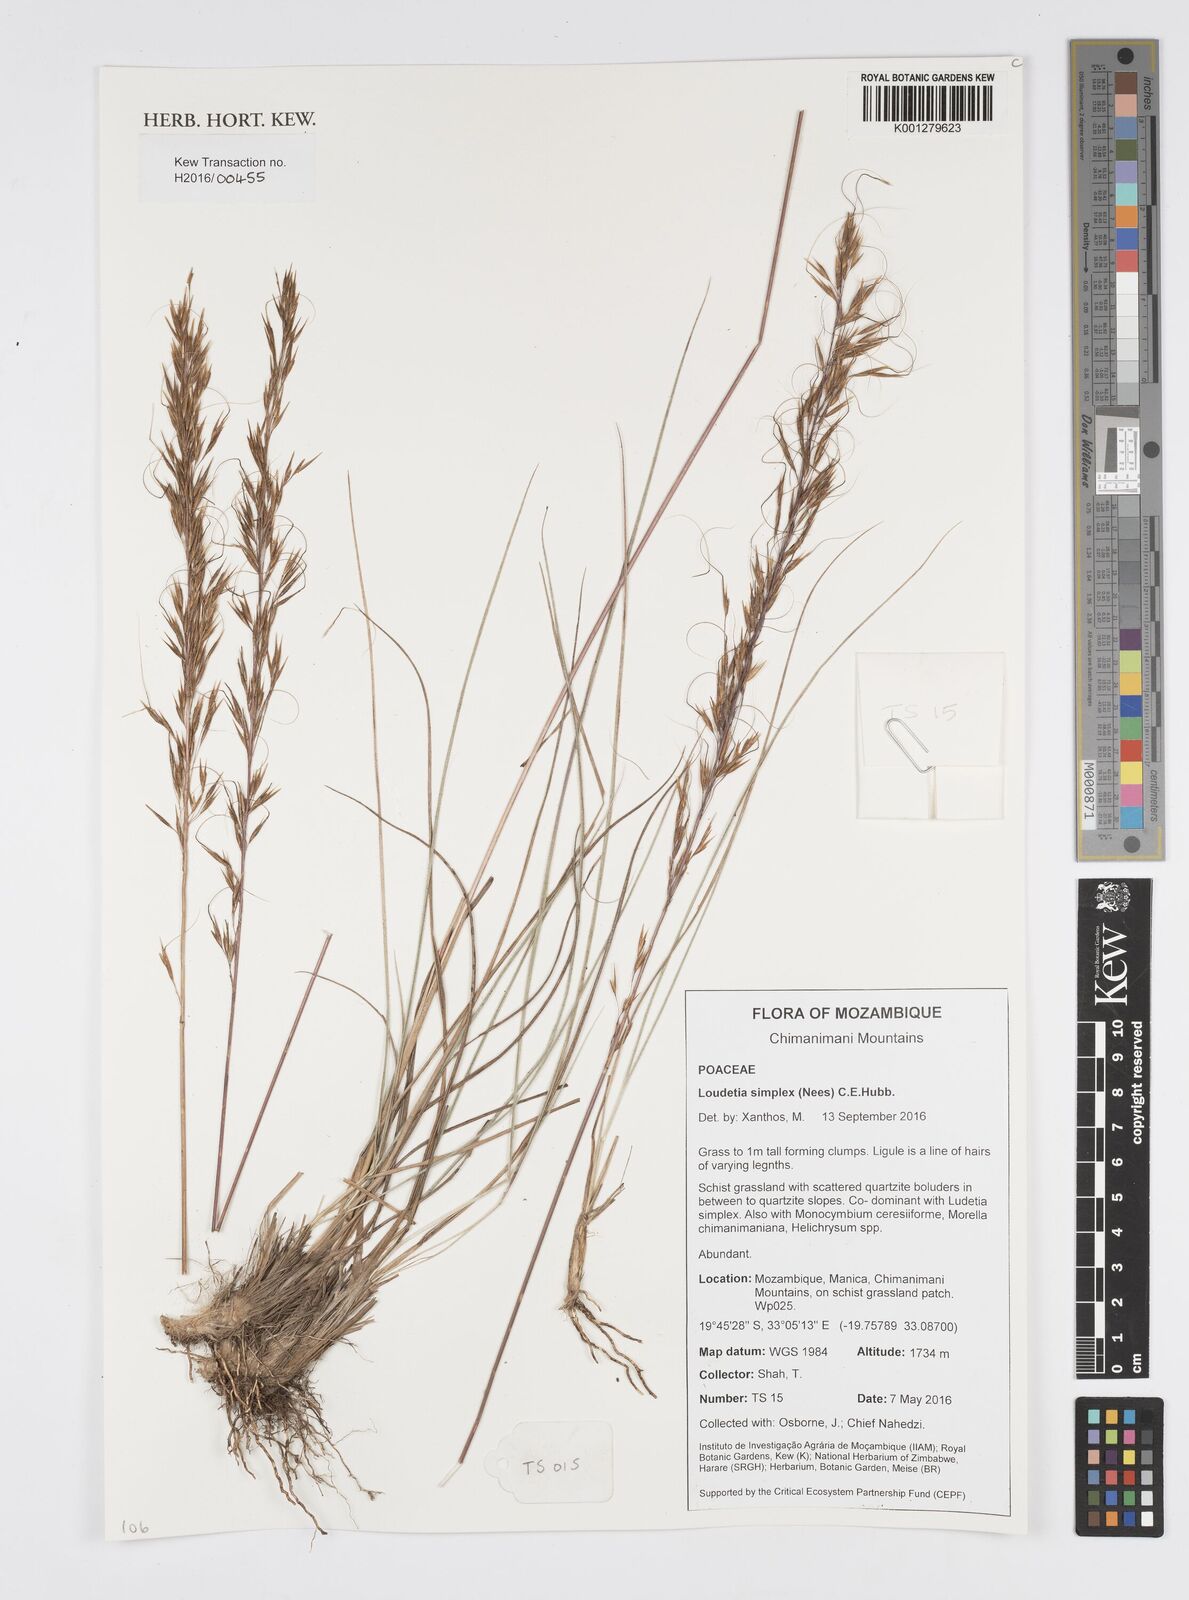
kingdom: Plantae
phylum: Tracheophyta
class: Liliopsida
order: Poales
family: Poaceae
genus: Loudetia
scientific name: Loudetia simplex
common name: Common russet grass
